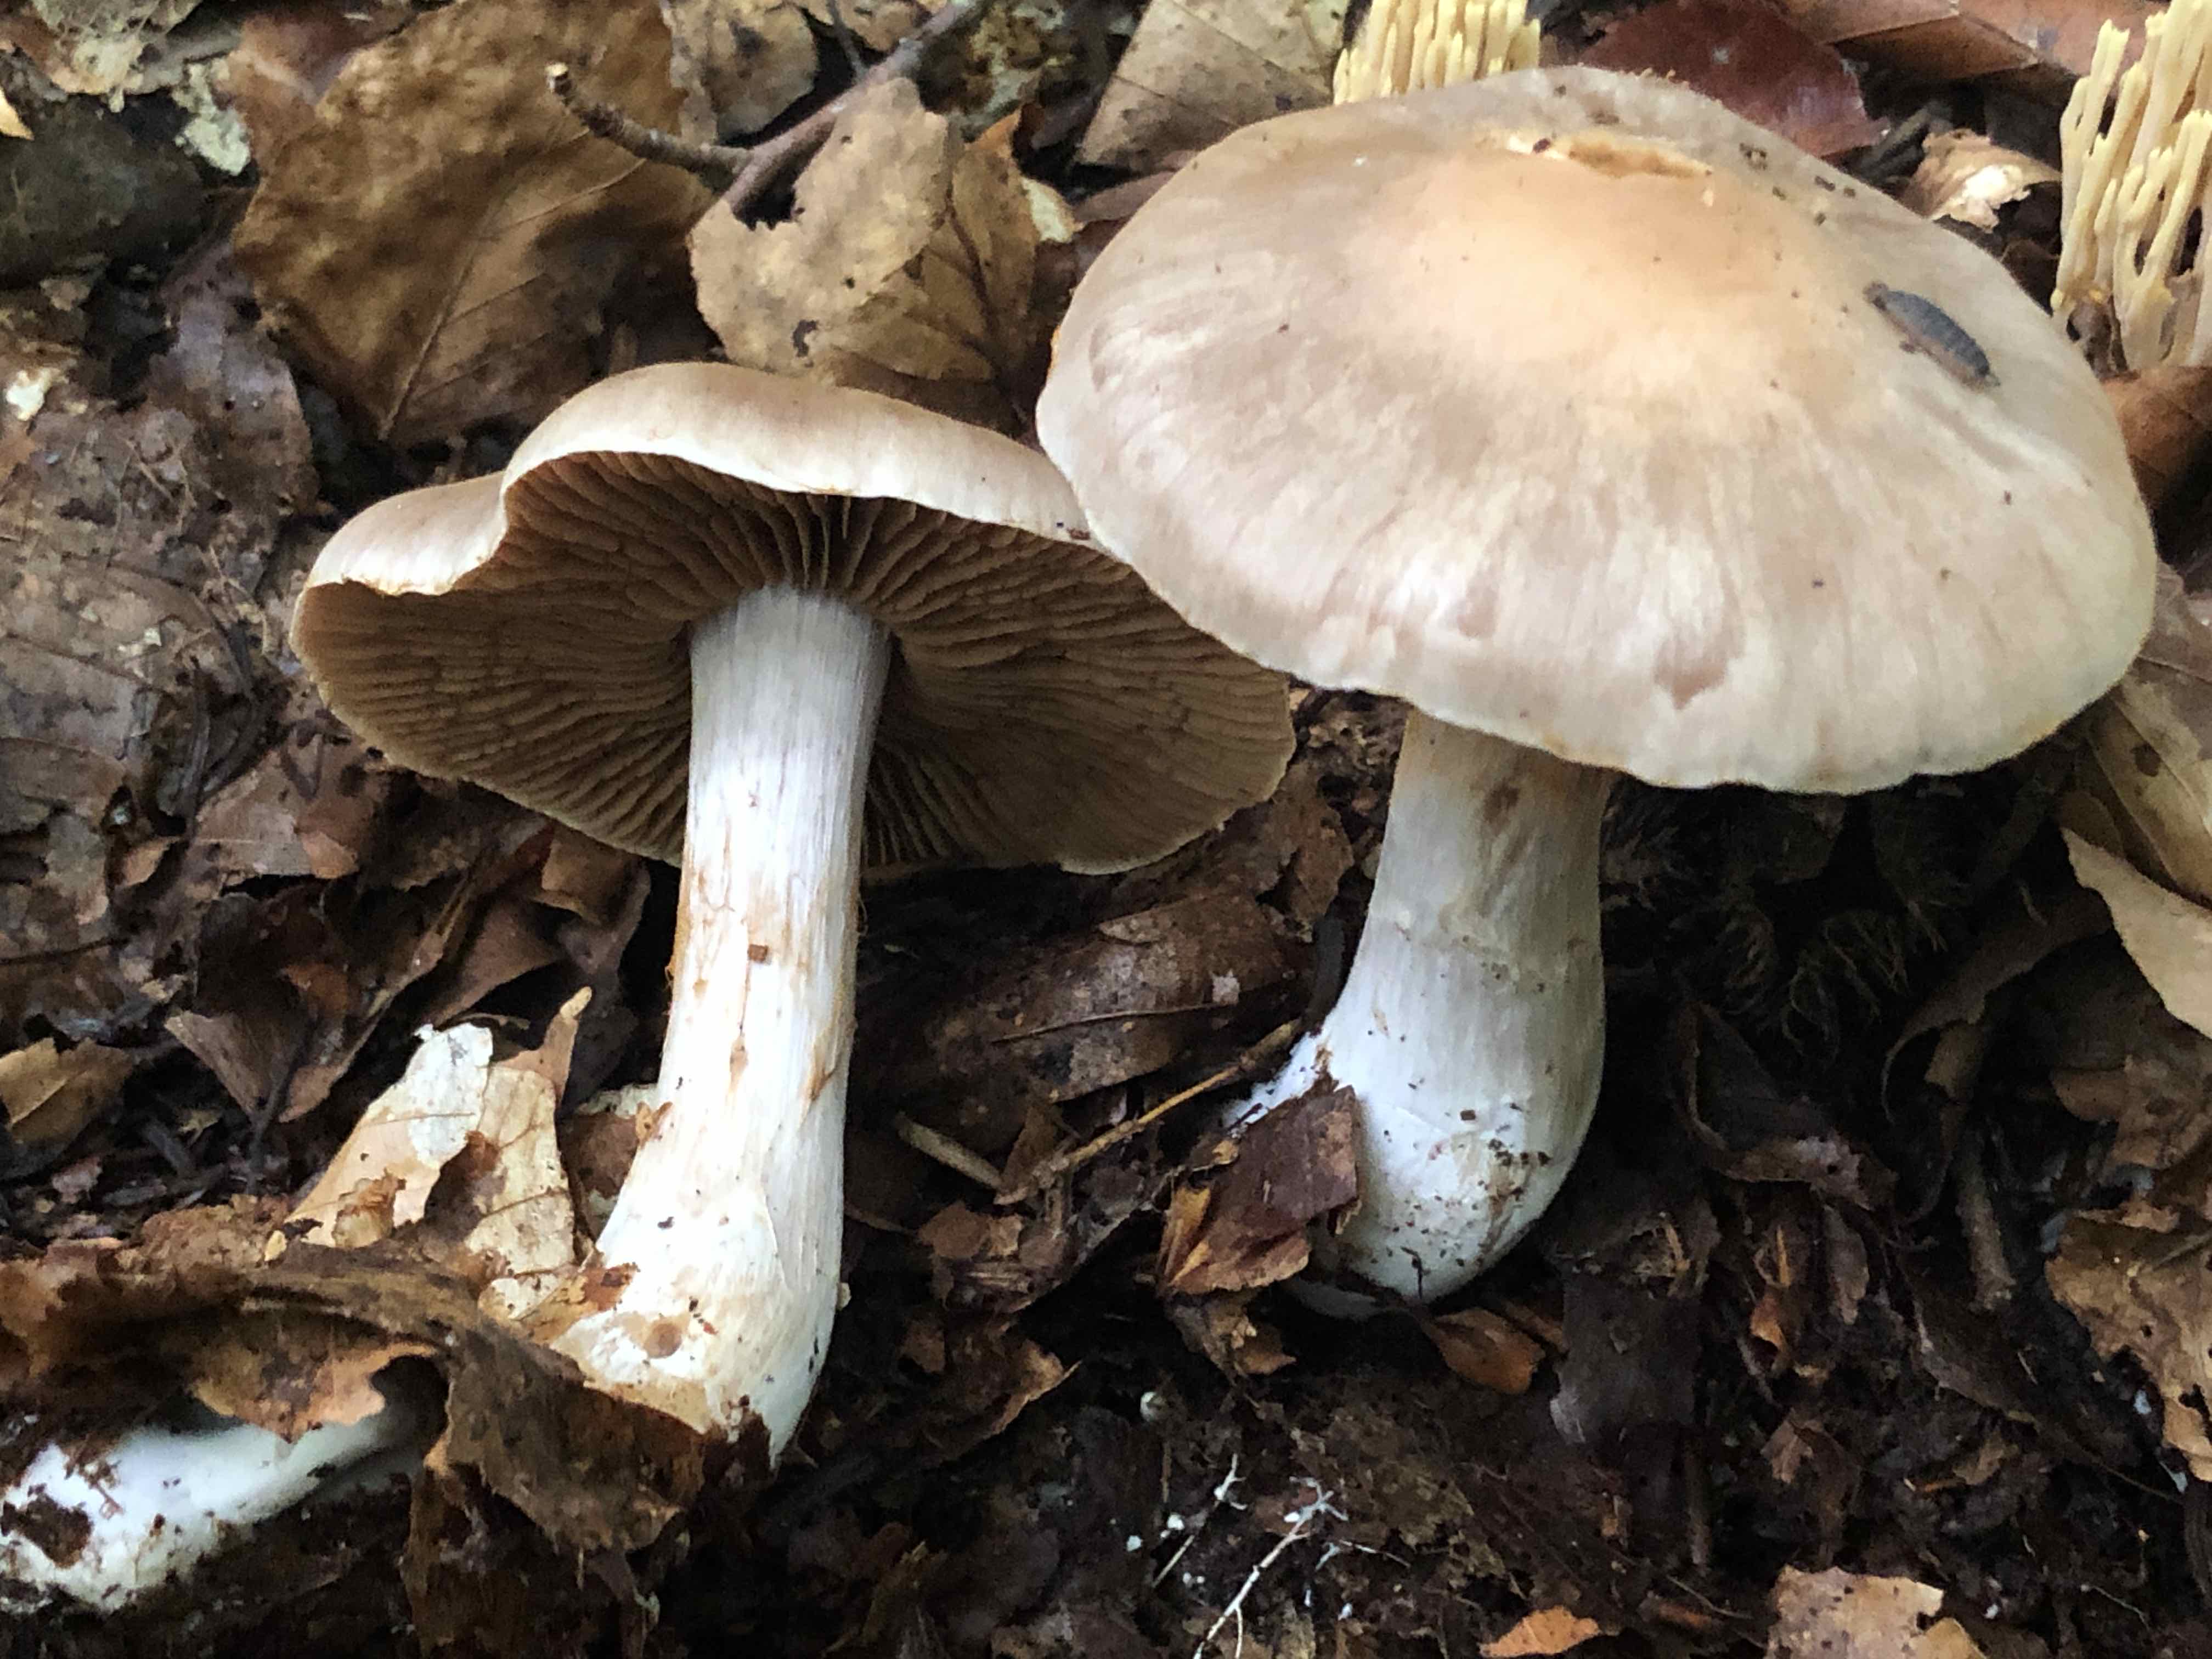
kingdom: Fungi
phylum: Basidiomycota
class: Agaricomycetes
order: Agaricales
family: Cortinariaceae
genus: Cortinarius
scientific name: Cortinarius turgidus
